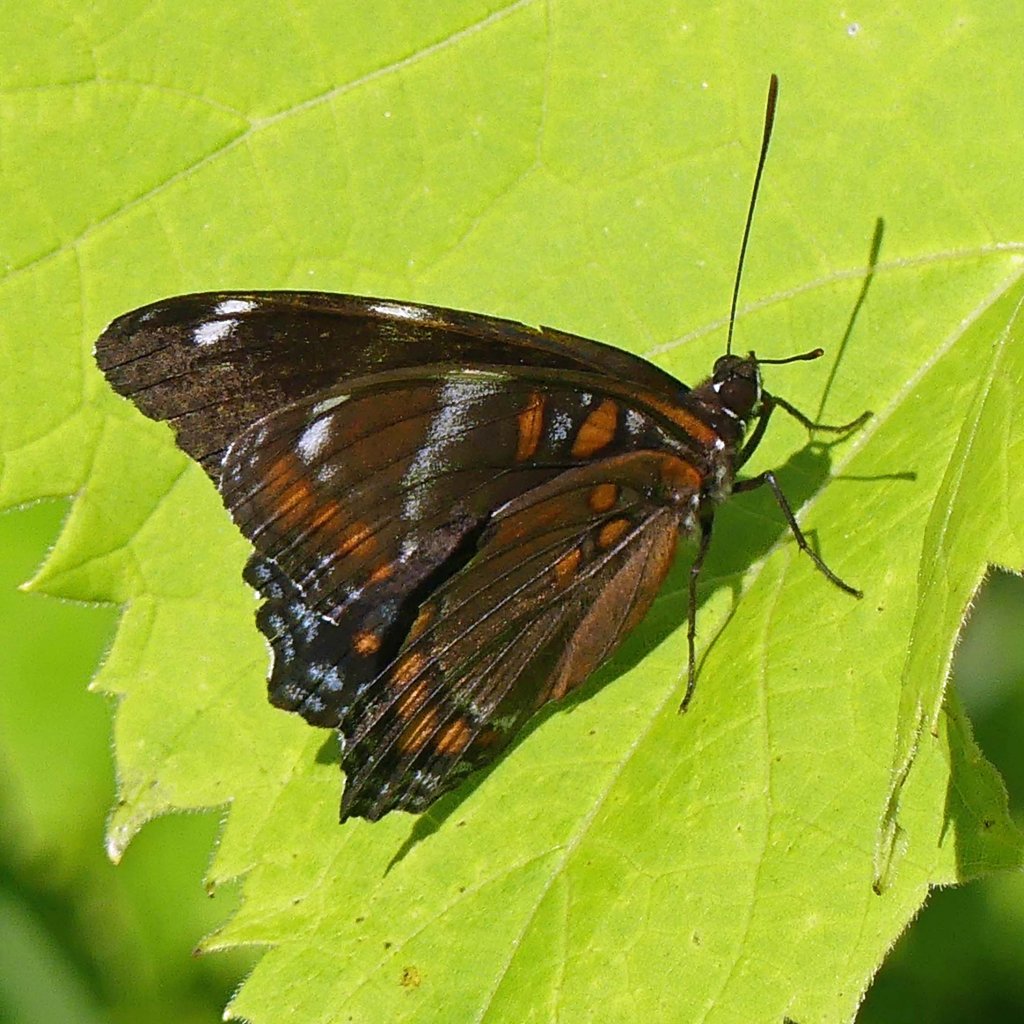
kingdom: Animalia
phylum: Arthropoda
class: Insecta
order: Lepidoptera
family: Nymphalidae
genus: Limenitis
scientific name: Limenitis
